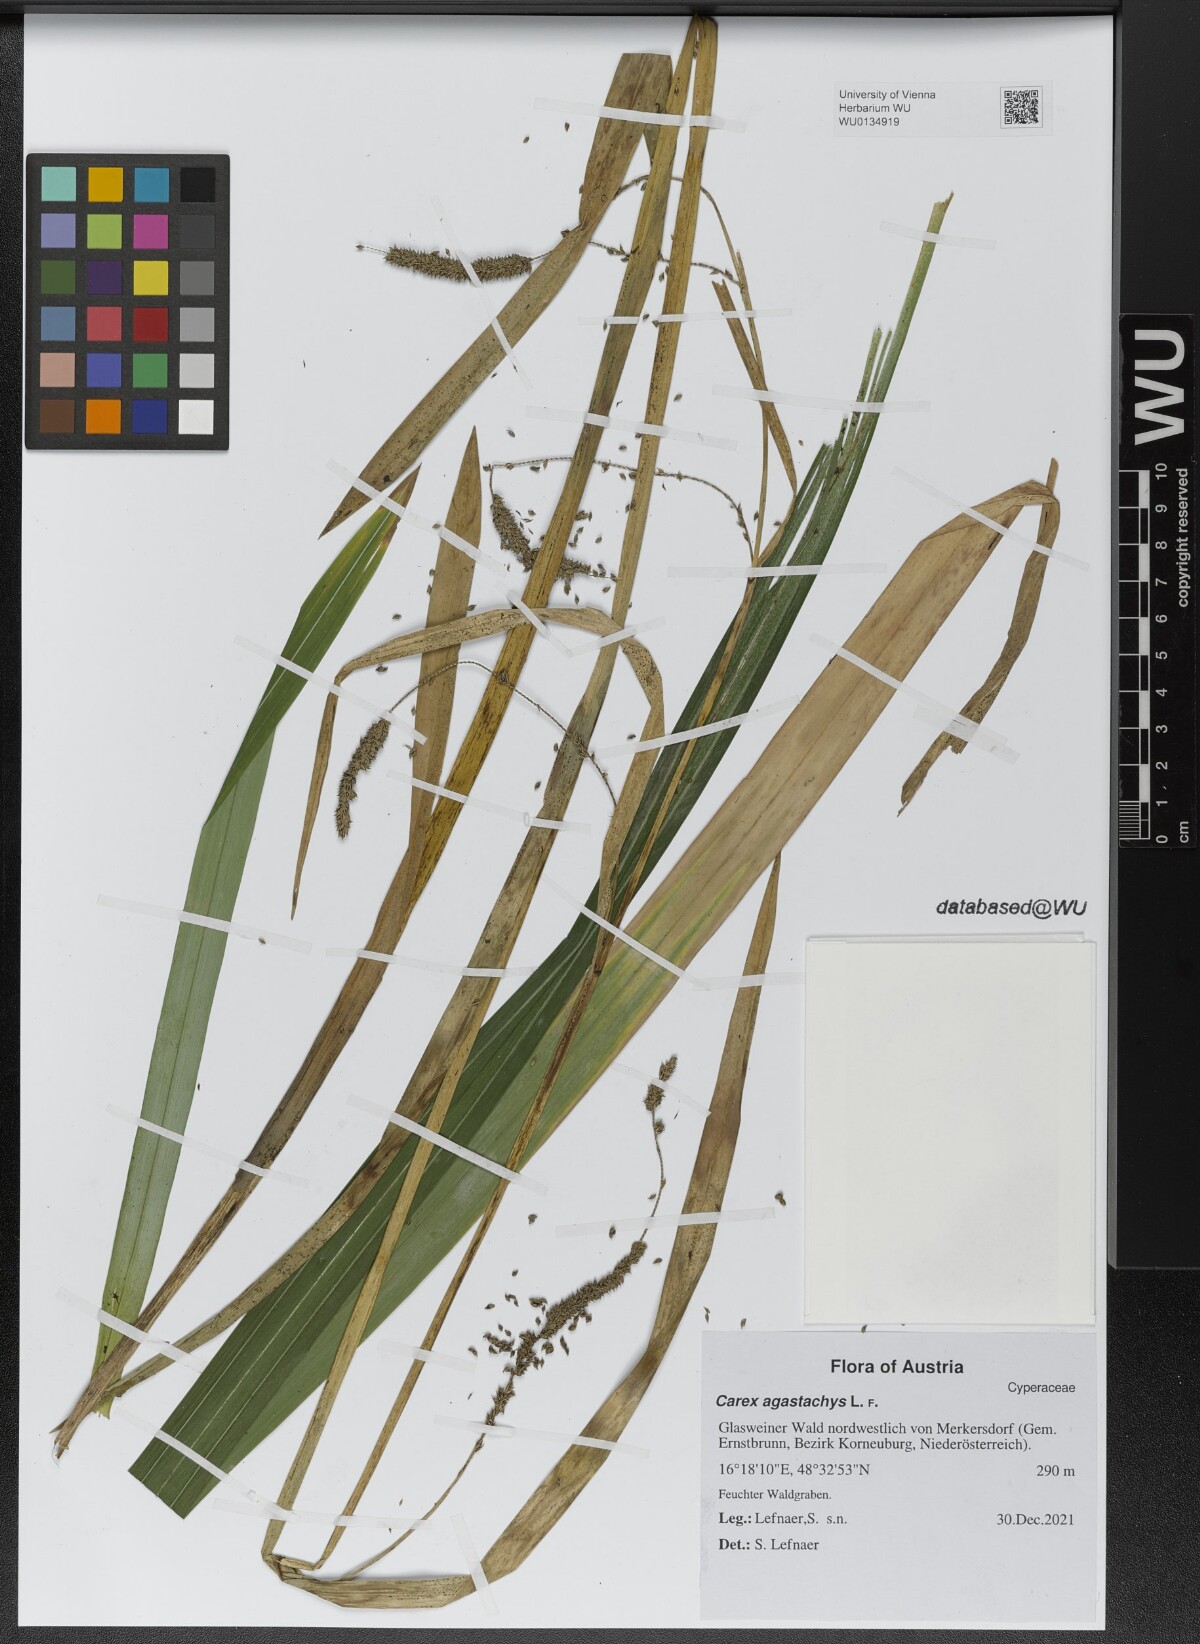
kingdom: Plantae
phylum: Tracheophyta
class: Liliopsida
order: Poales
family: Cyperaceae
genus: Carex
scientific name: Carex agastachys
